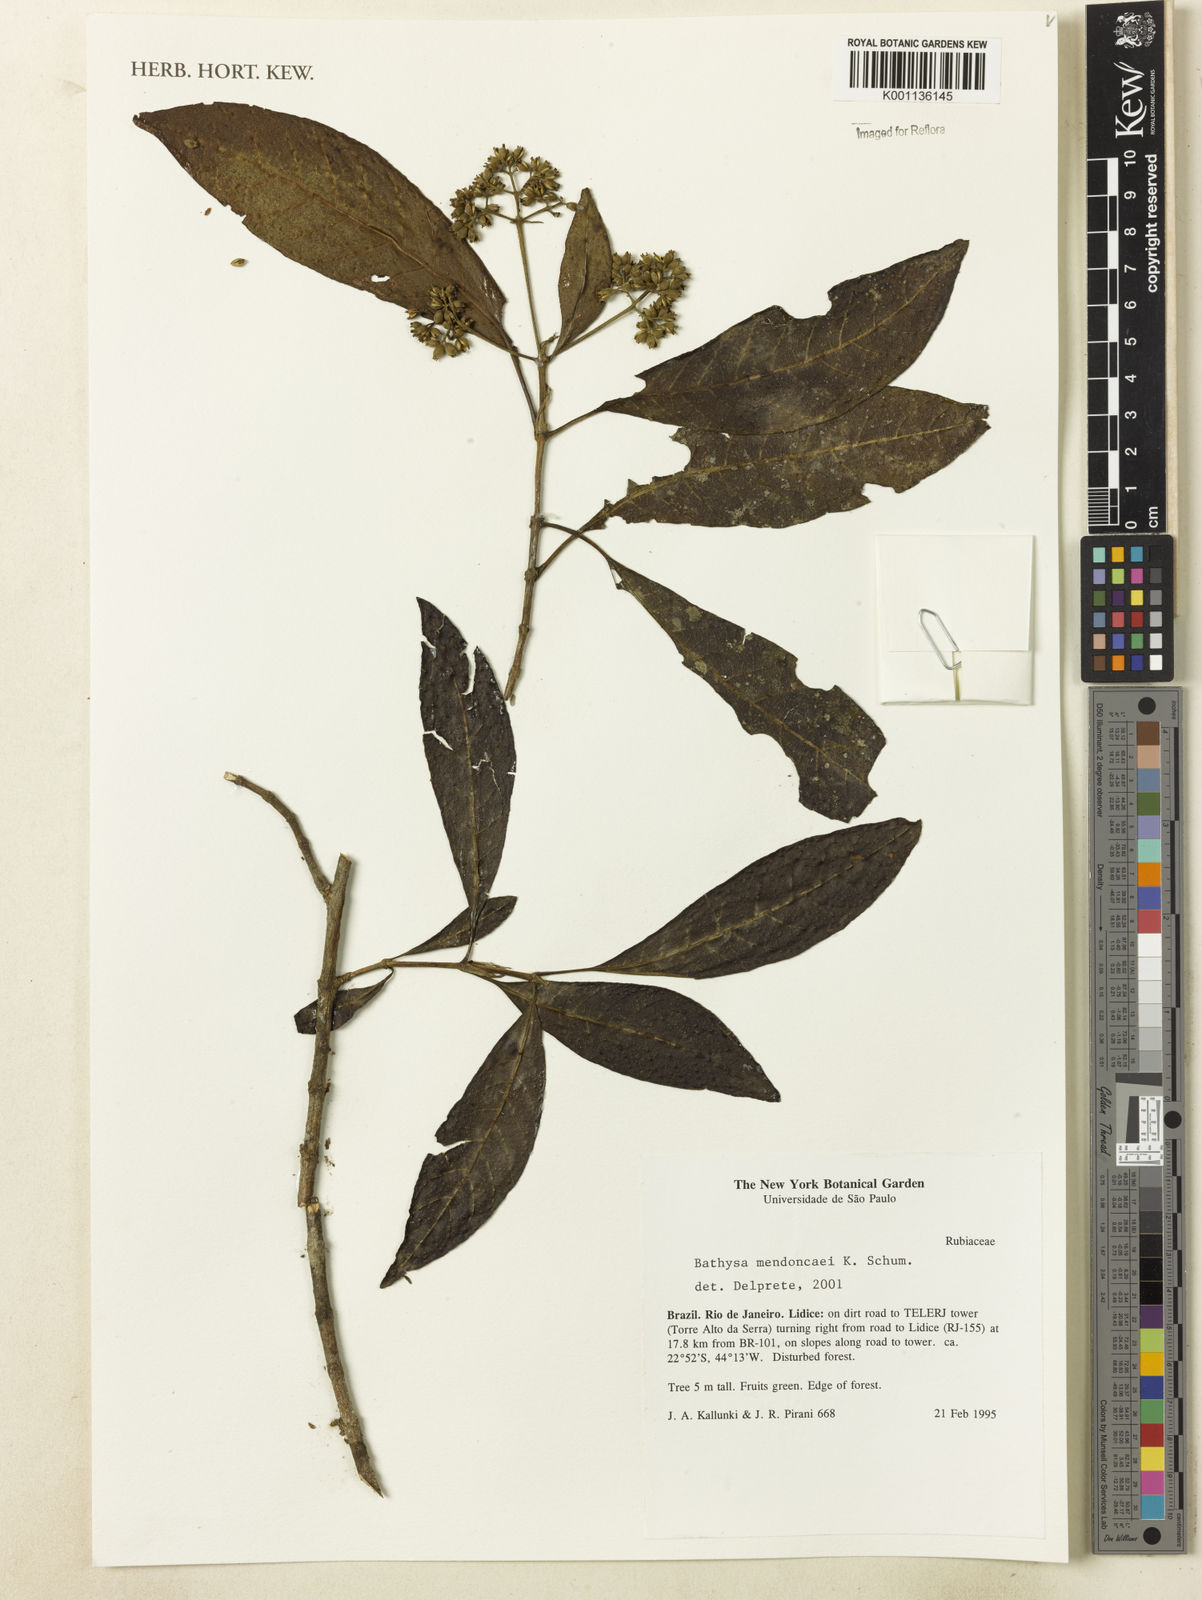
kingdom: Plantae
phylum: Tracheophyta
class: Magnoliopsida
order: Gentianales
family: Rubiaceae
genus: Bathysa
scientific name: Bathysa
